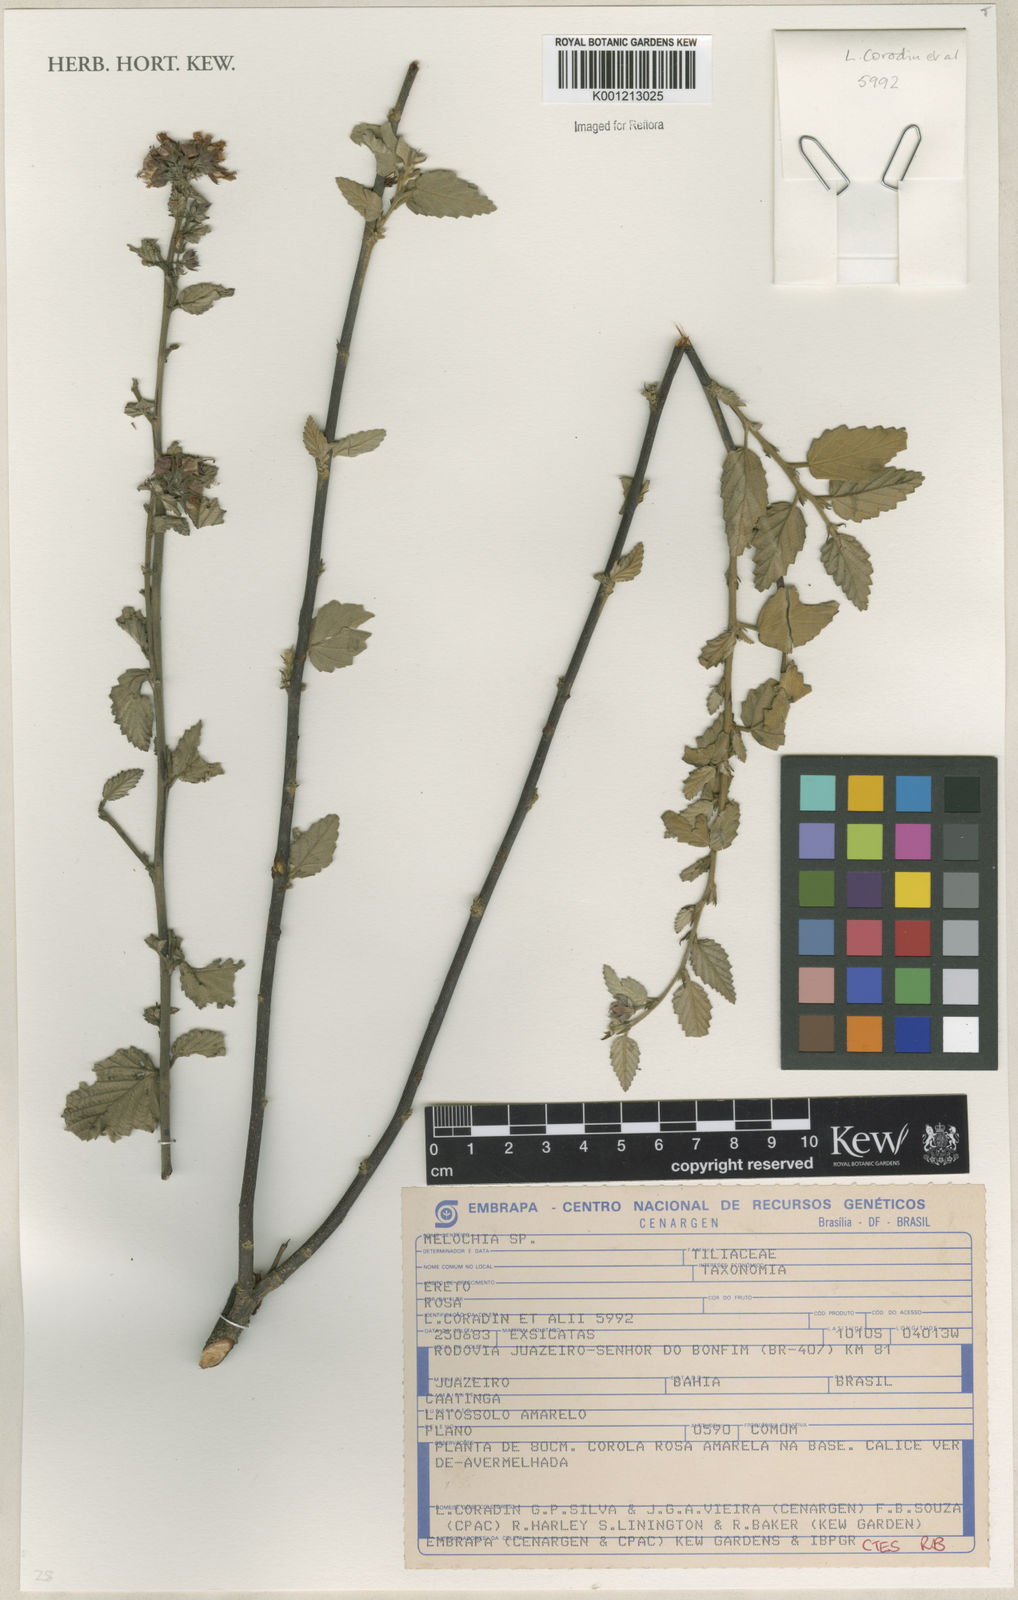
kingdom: Plantae
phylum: Tracheophyta
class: Magnoliopsida
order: Malvales
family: Malvaceae
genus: Melochia
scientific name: Melochia
